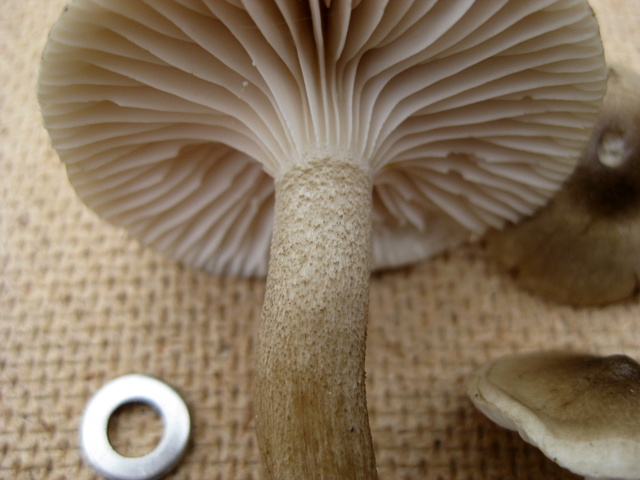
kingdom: Fungi
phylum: Basidiomycota
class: Agaricomycetes
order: Agaricales
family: Hygrophoraceae
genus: Hygrophorus
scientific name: Hygrophorus
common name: sneglehat
